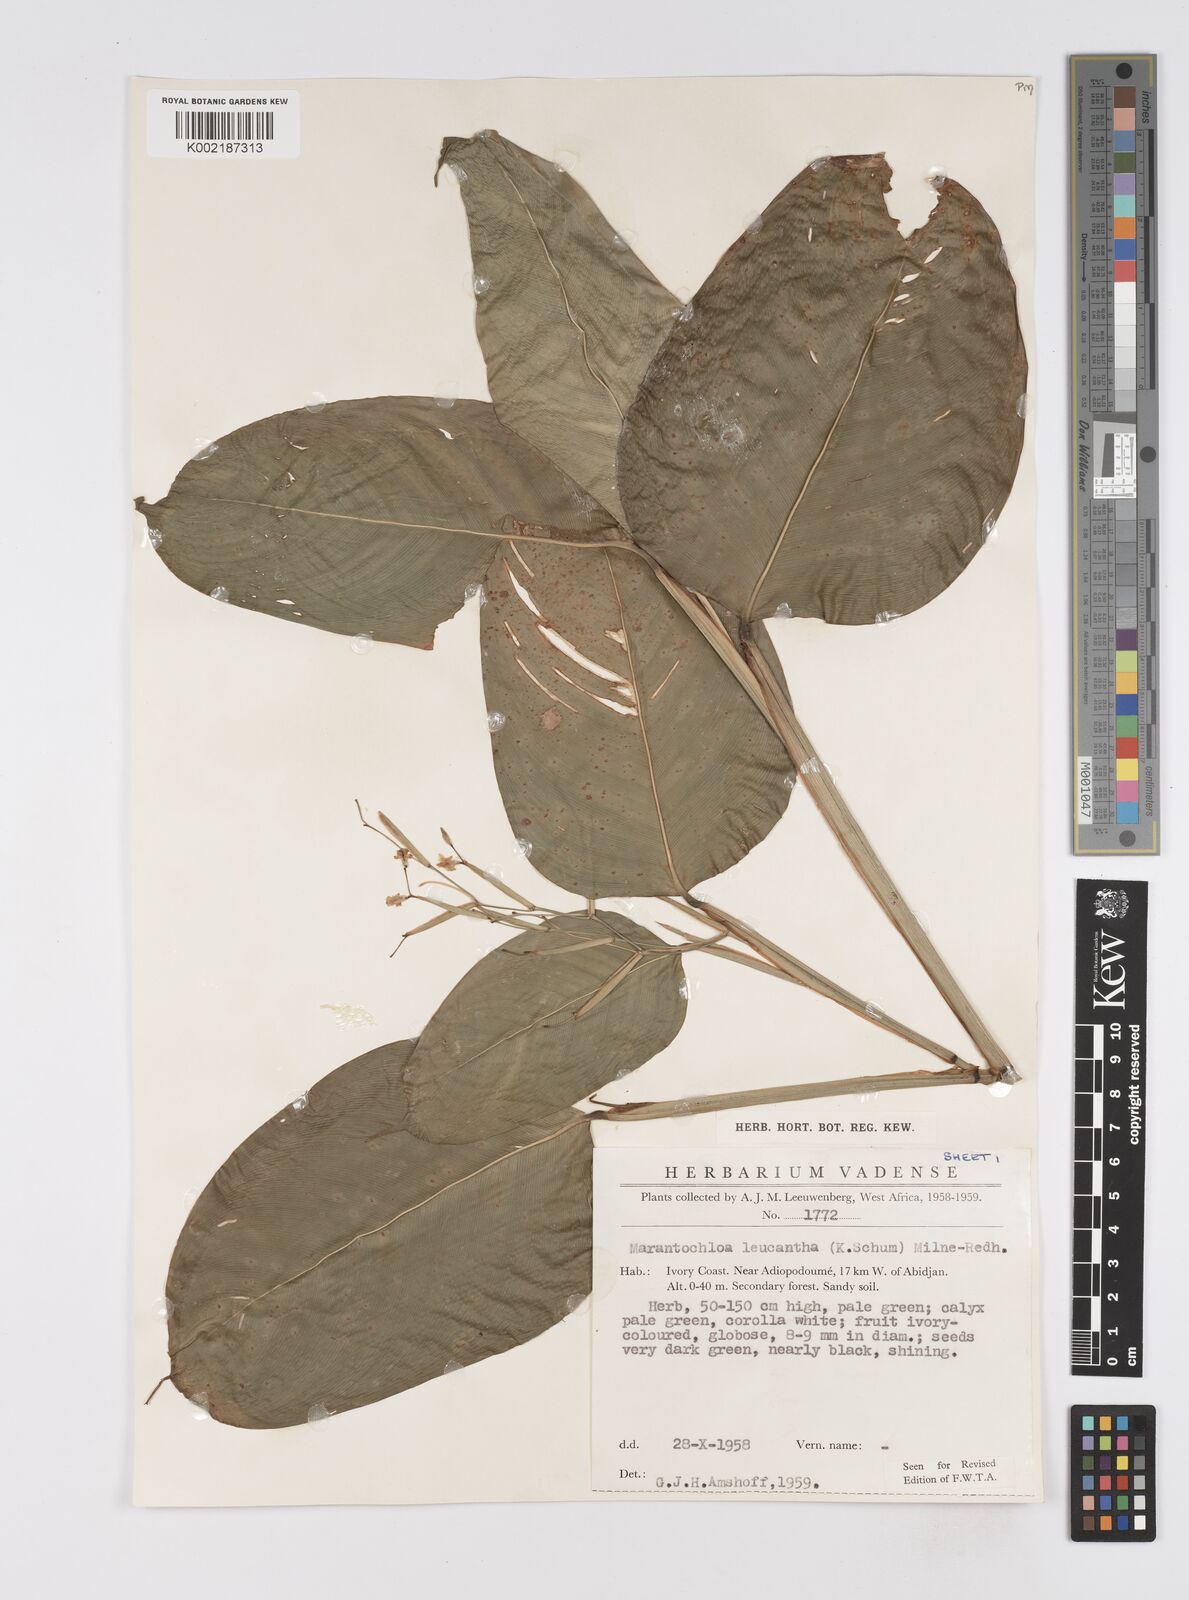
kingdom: Plantae
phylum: Tracheophyta
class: Liliopsida
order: Zingiberales
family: Marantaceae
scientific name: Marantaceae
